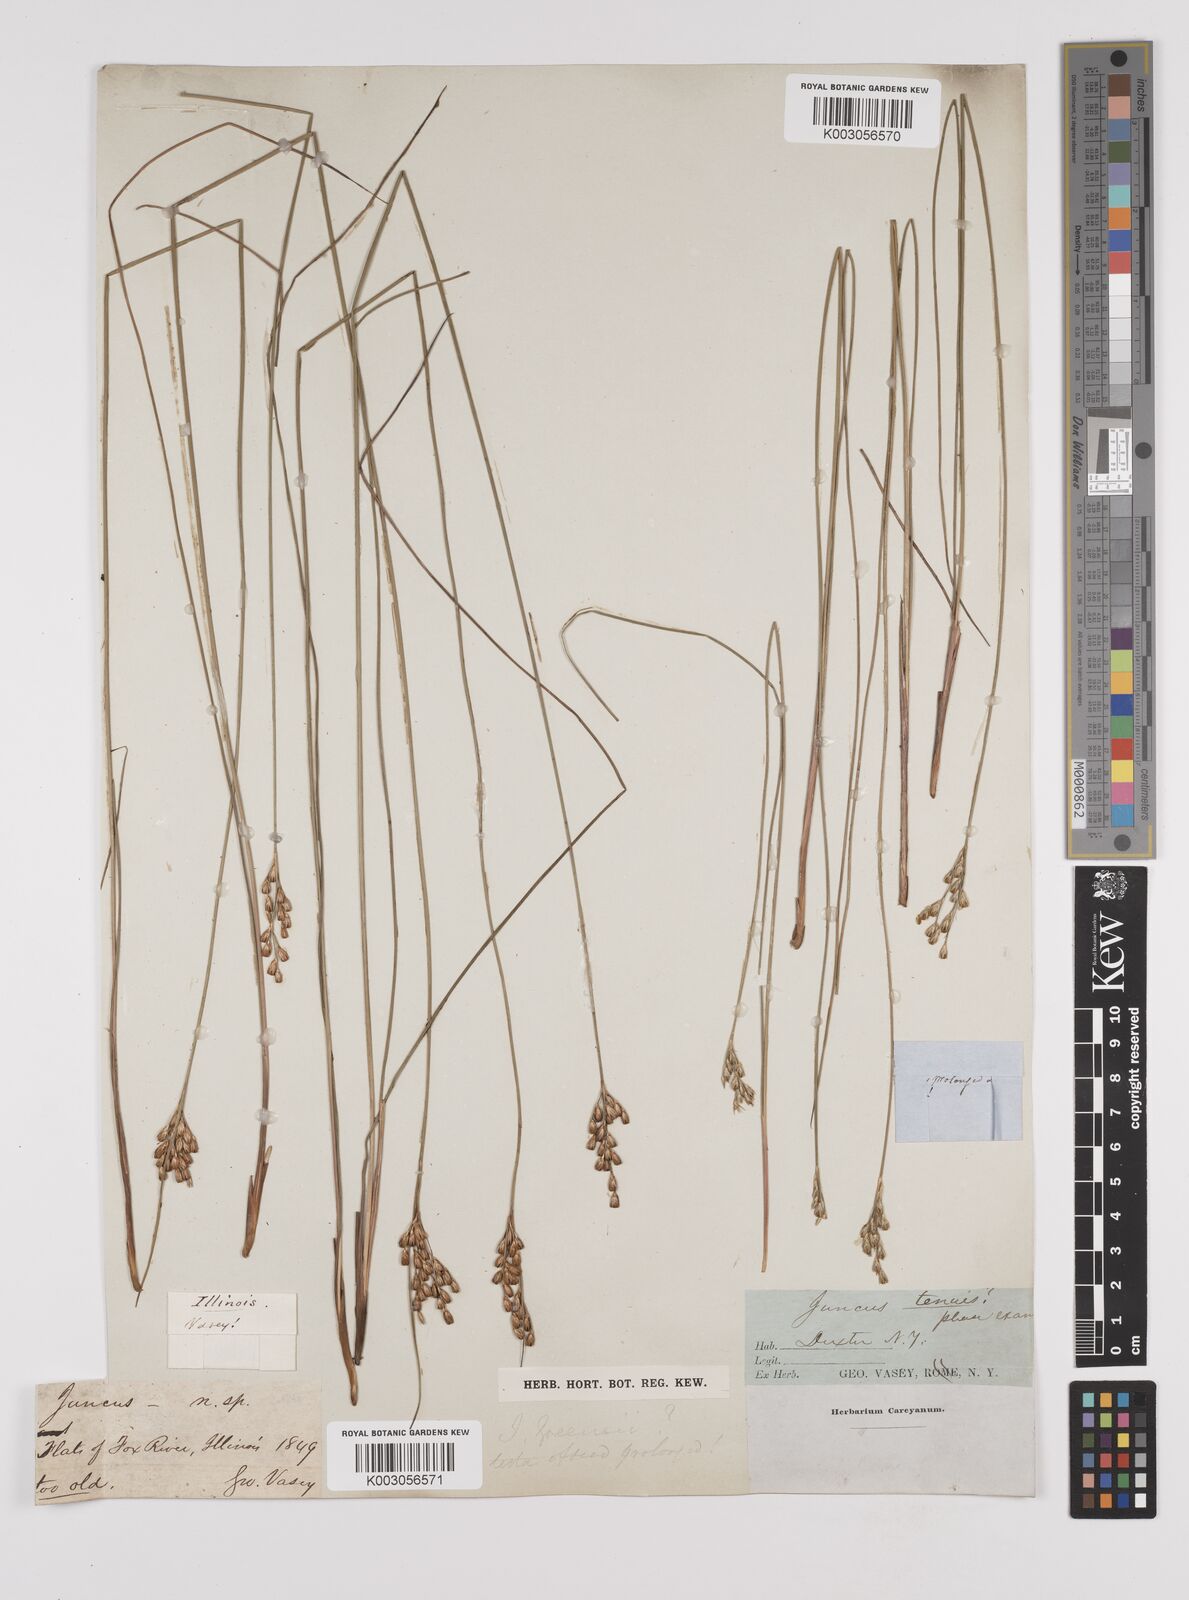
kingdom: Plantae
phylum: Tracheophyta
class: Liliopsida
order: Poales
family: Juncaceae
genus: Juncus
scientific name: Juncus greenei
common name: Greene's rush
